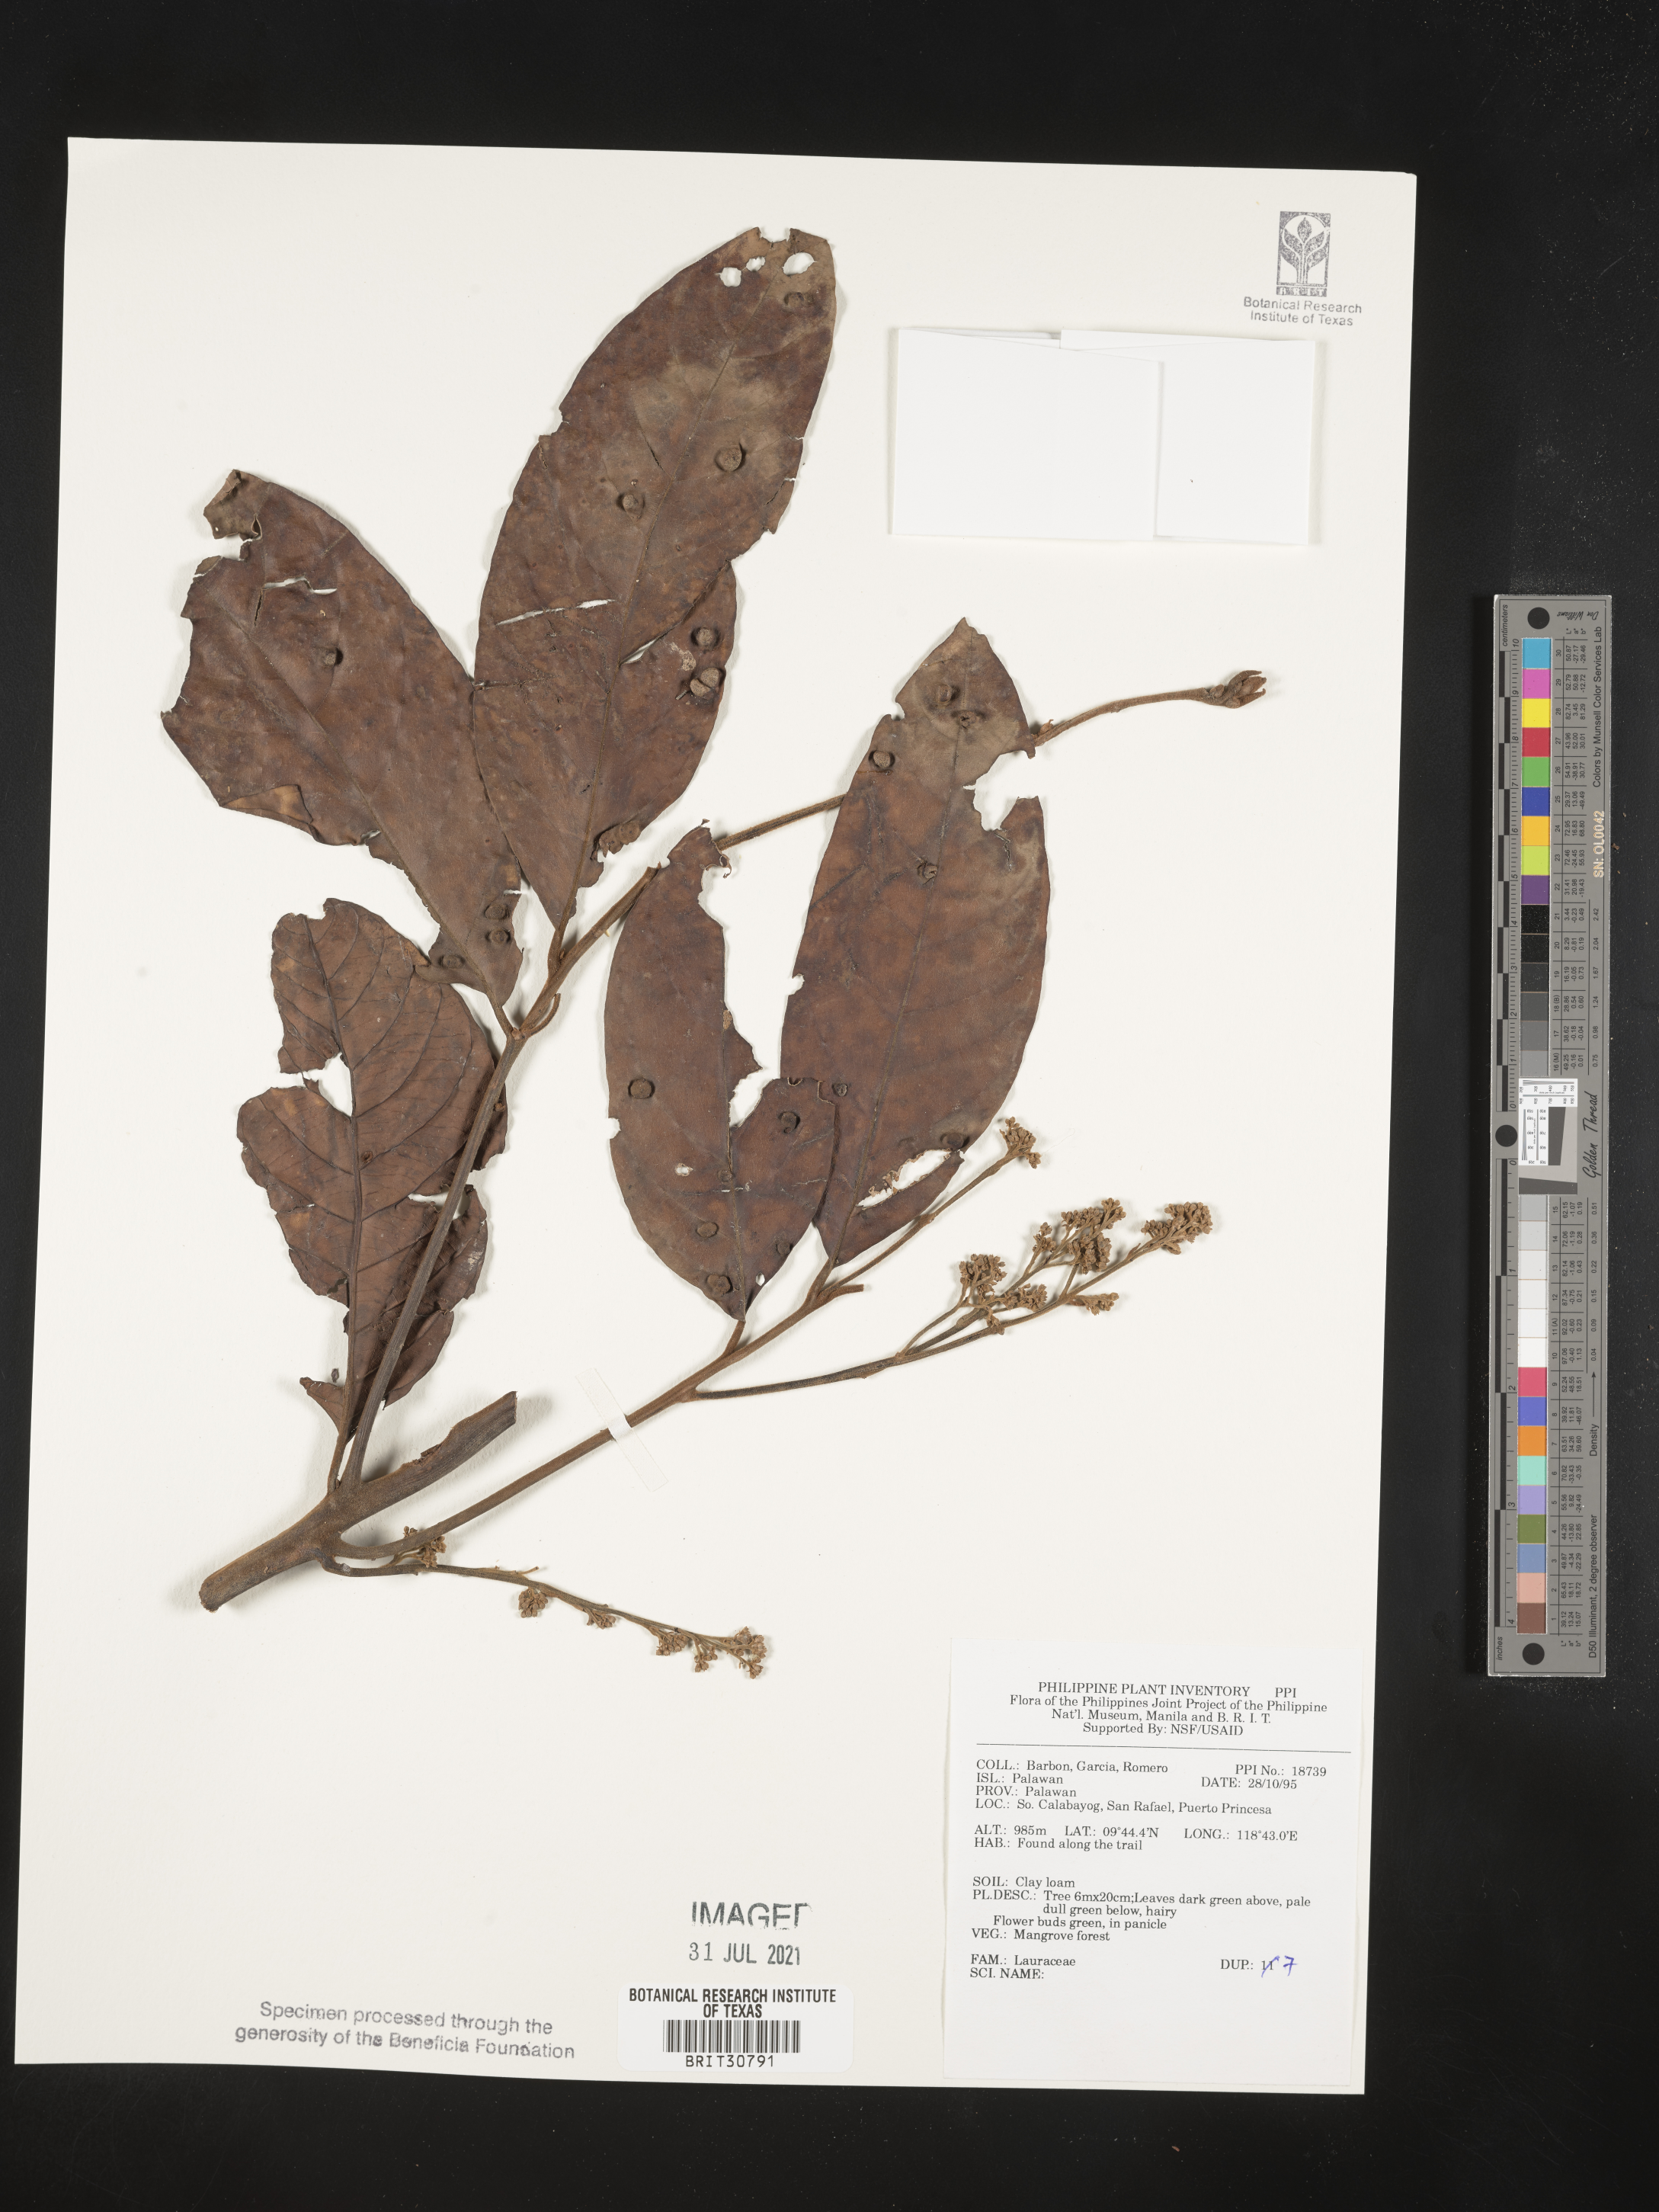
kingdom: Plantae
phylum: Tracheophyta
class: Magnoliopsida
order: Laurales
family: Lauraceae
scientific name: Lauraceae
